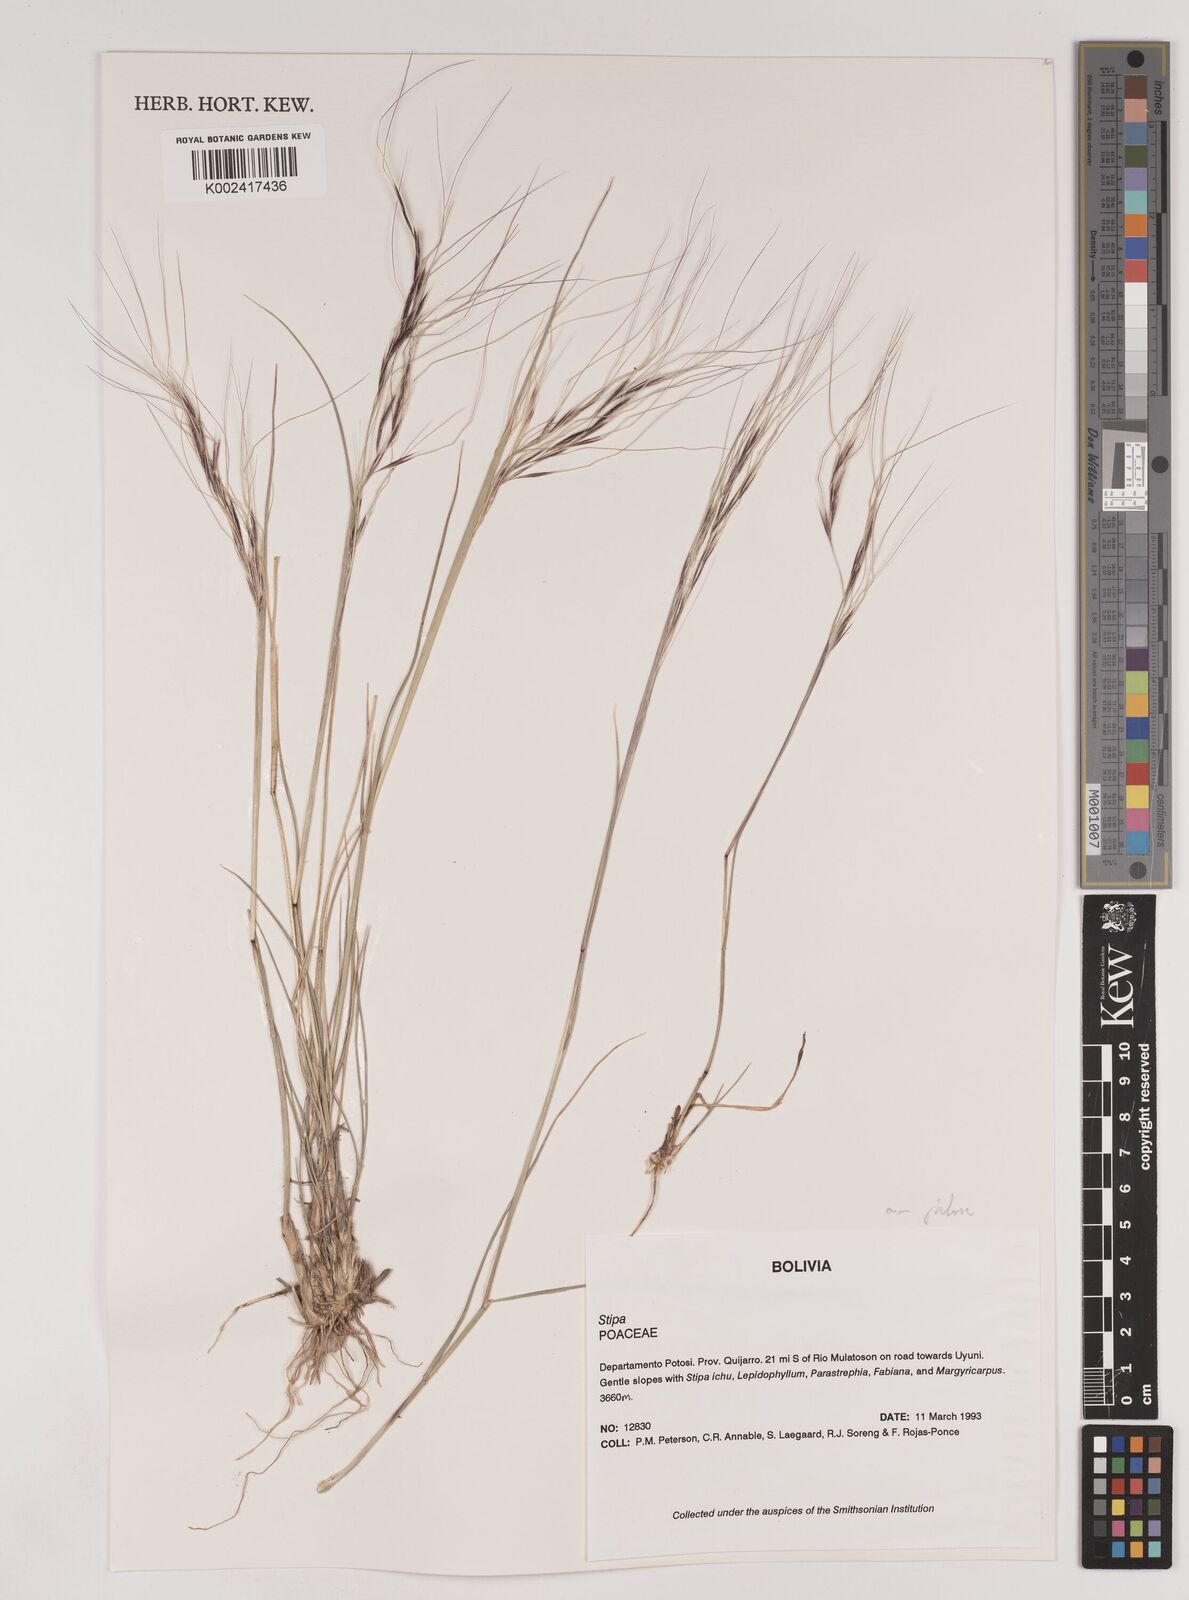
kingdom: Plantae
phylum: Tracheophyta
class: Liliopsida
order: Poales
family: Poaceae
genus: Nassella
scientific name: Nassella arcuata
